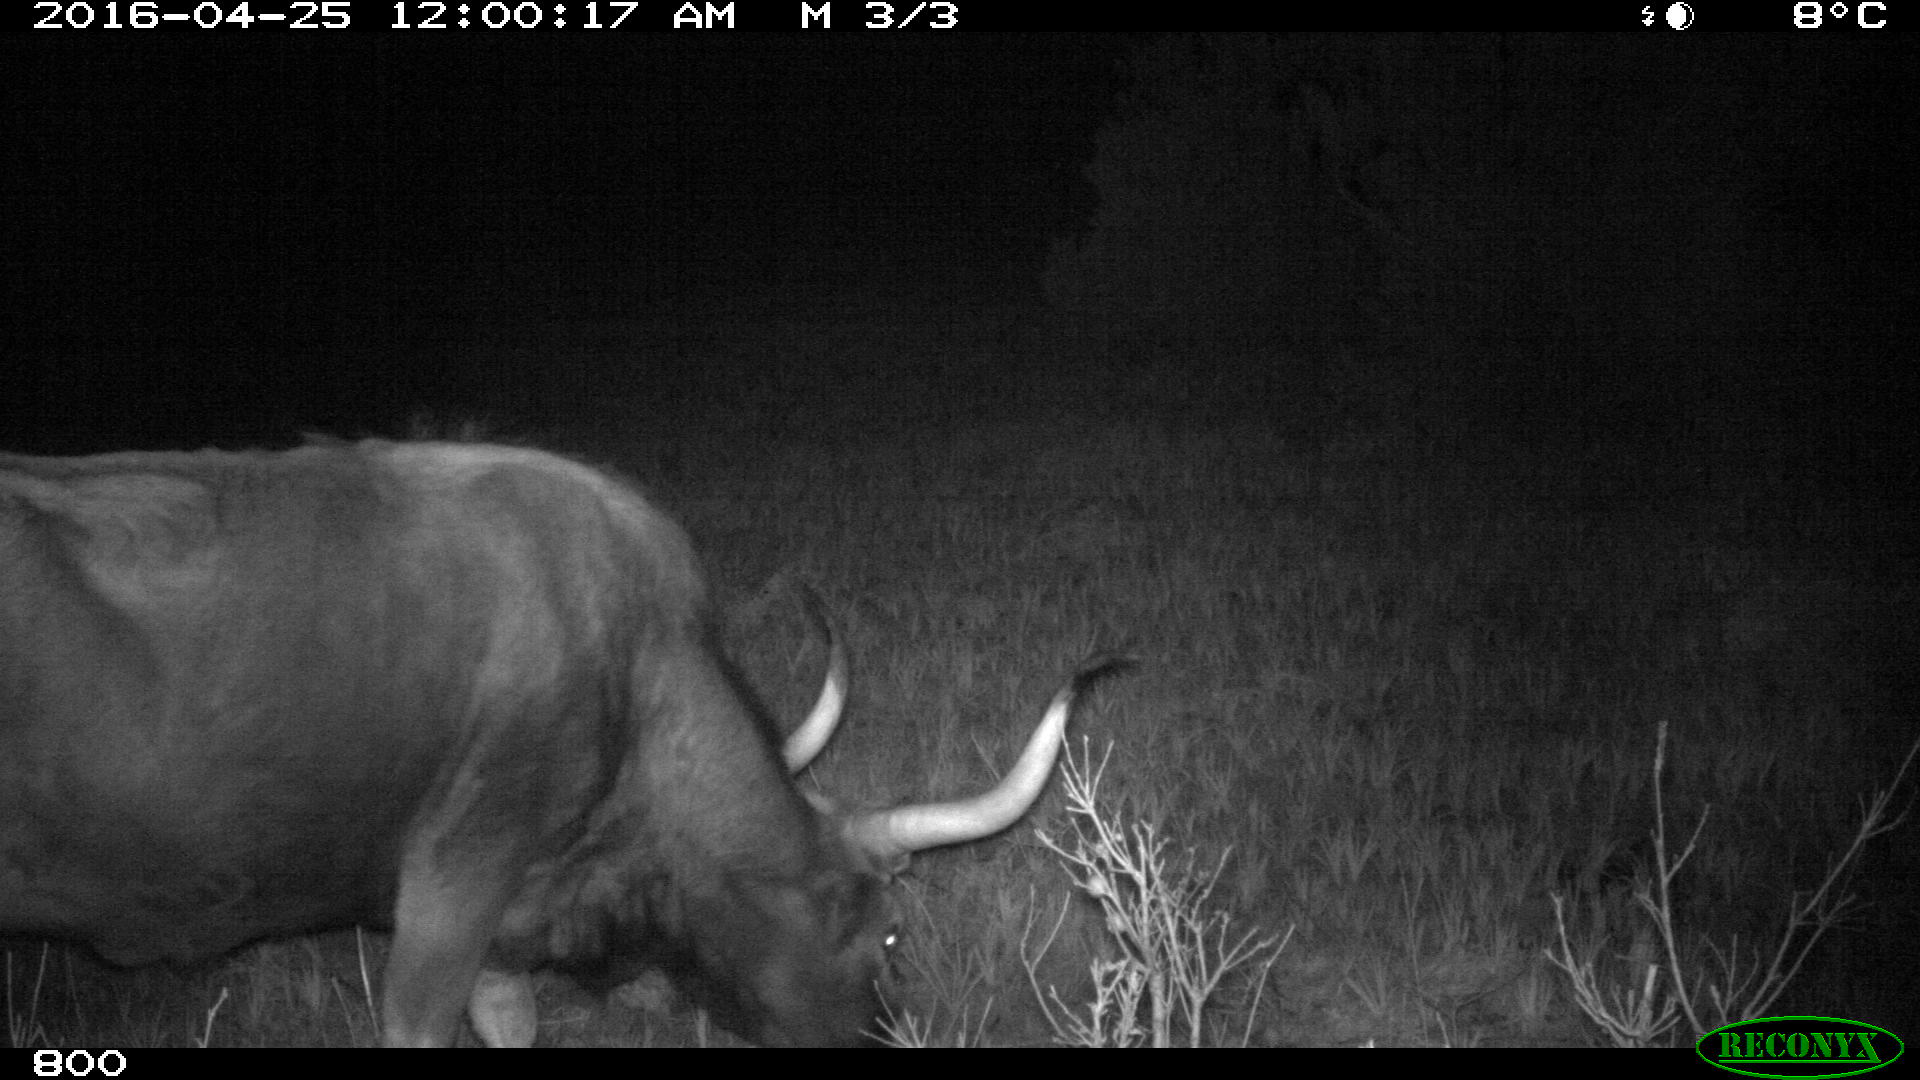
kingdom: Animalia
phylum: Chordata
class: Mammalia
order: Artiodactyla
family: Bovidae
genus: Bos
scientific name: Bos taurus
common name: Domesticated cattle
